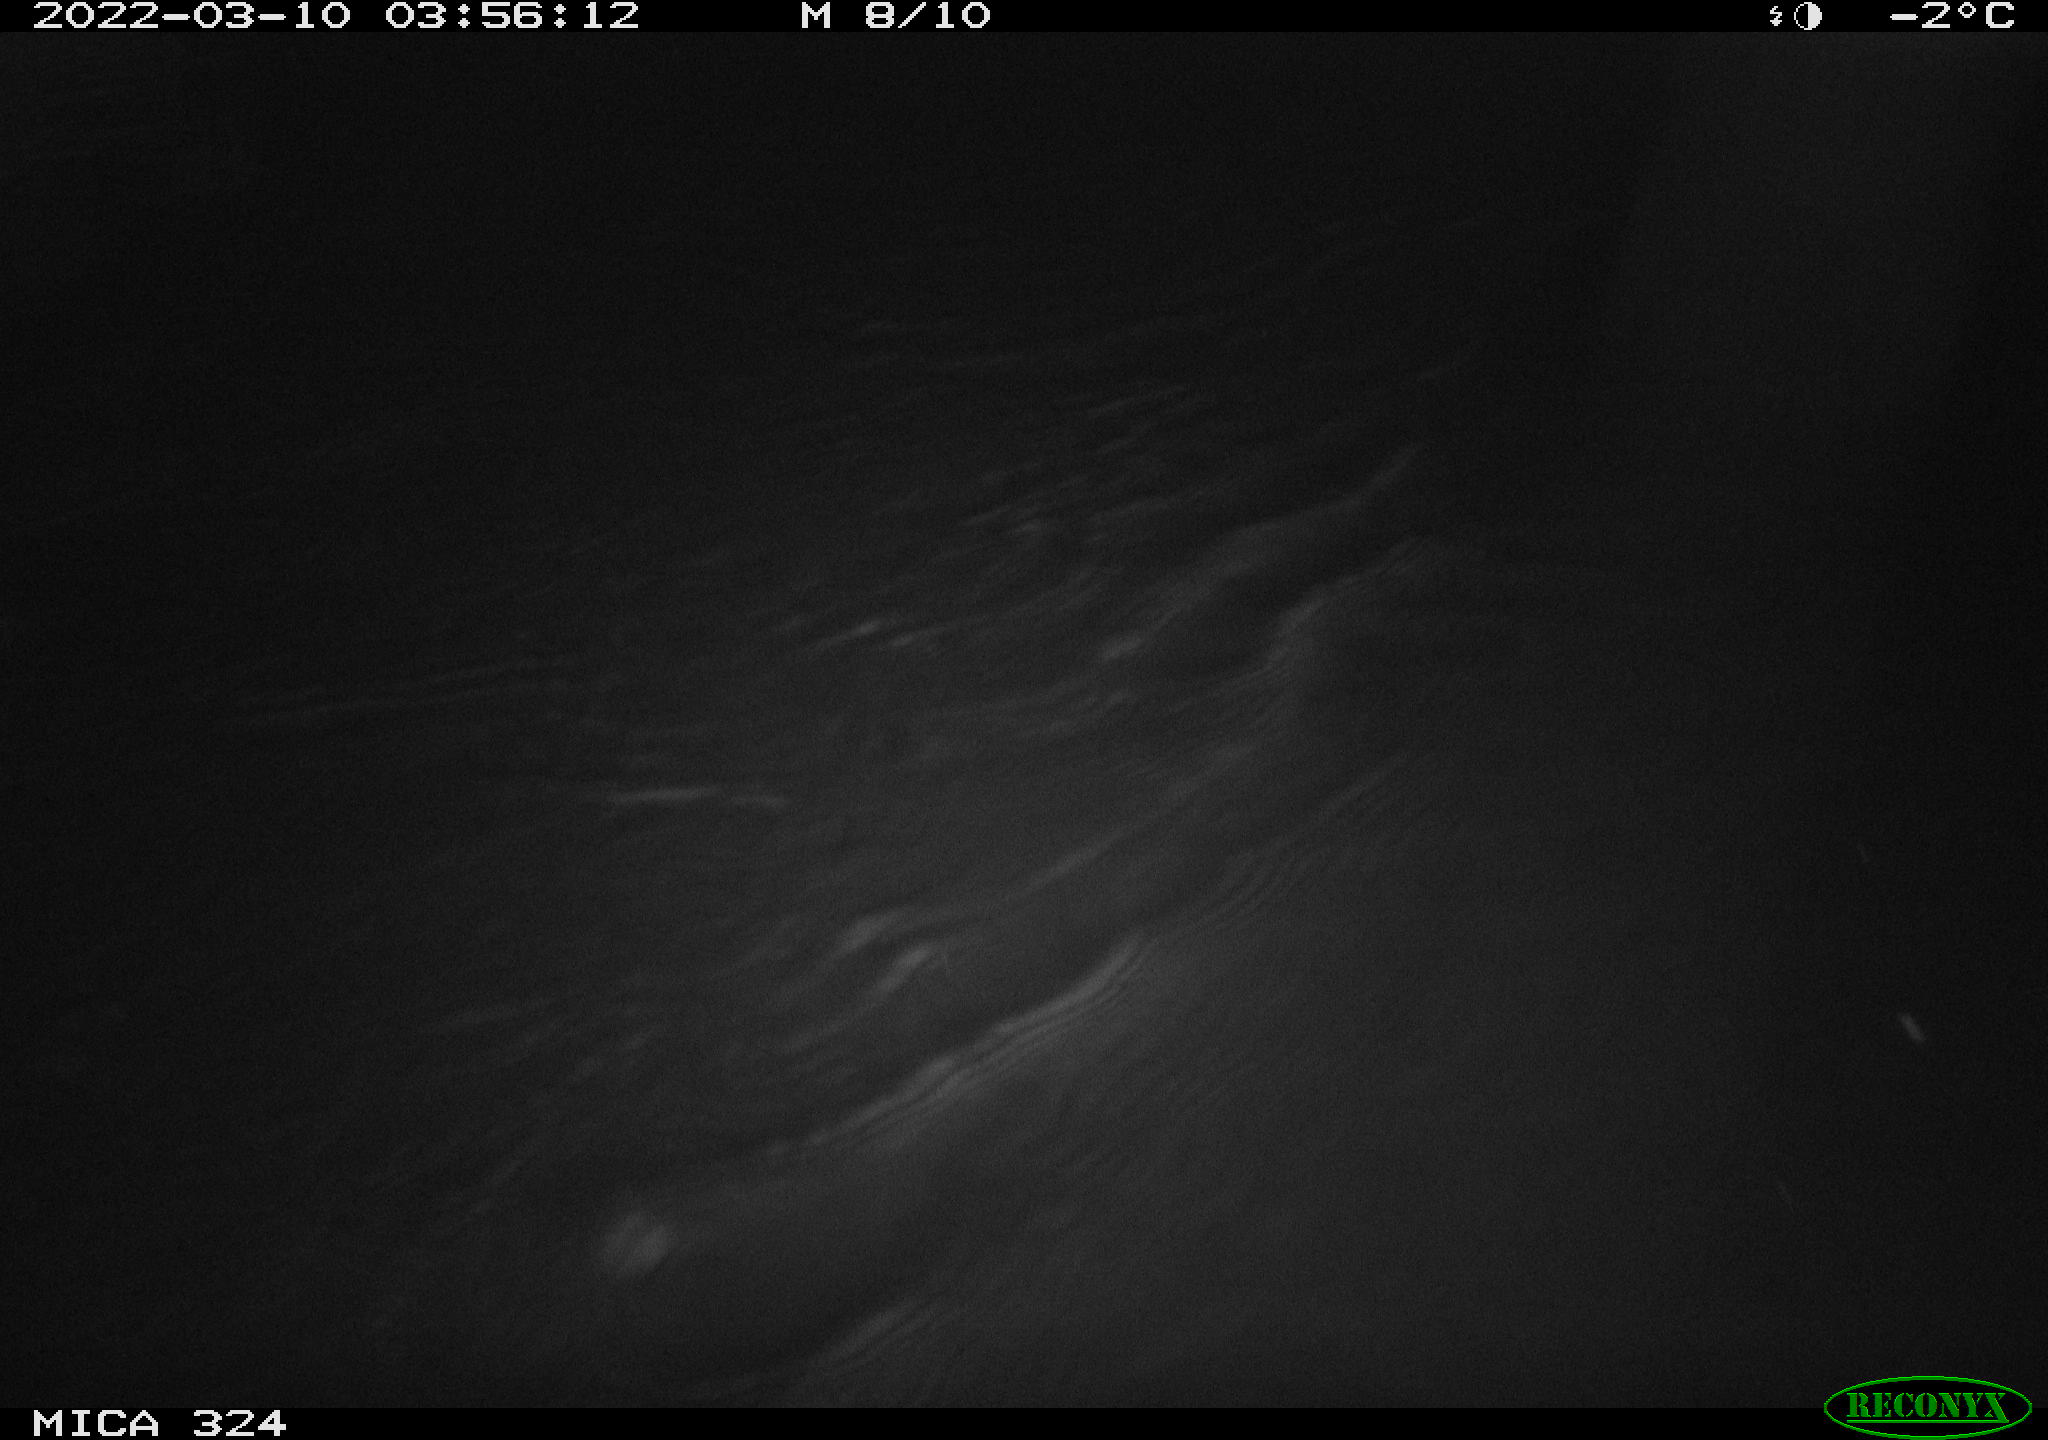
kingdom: Animalia
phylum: Chordata
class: Aves
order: Anseriformes
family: Anatidae
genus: Anas
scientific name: Anas
